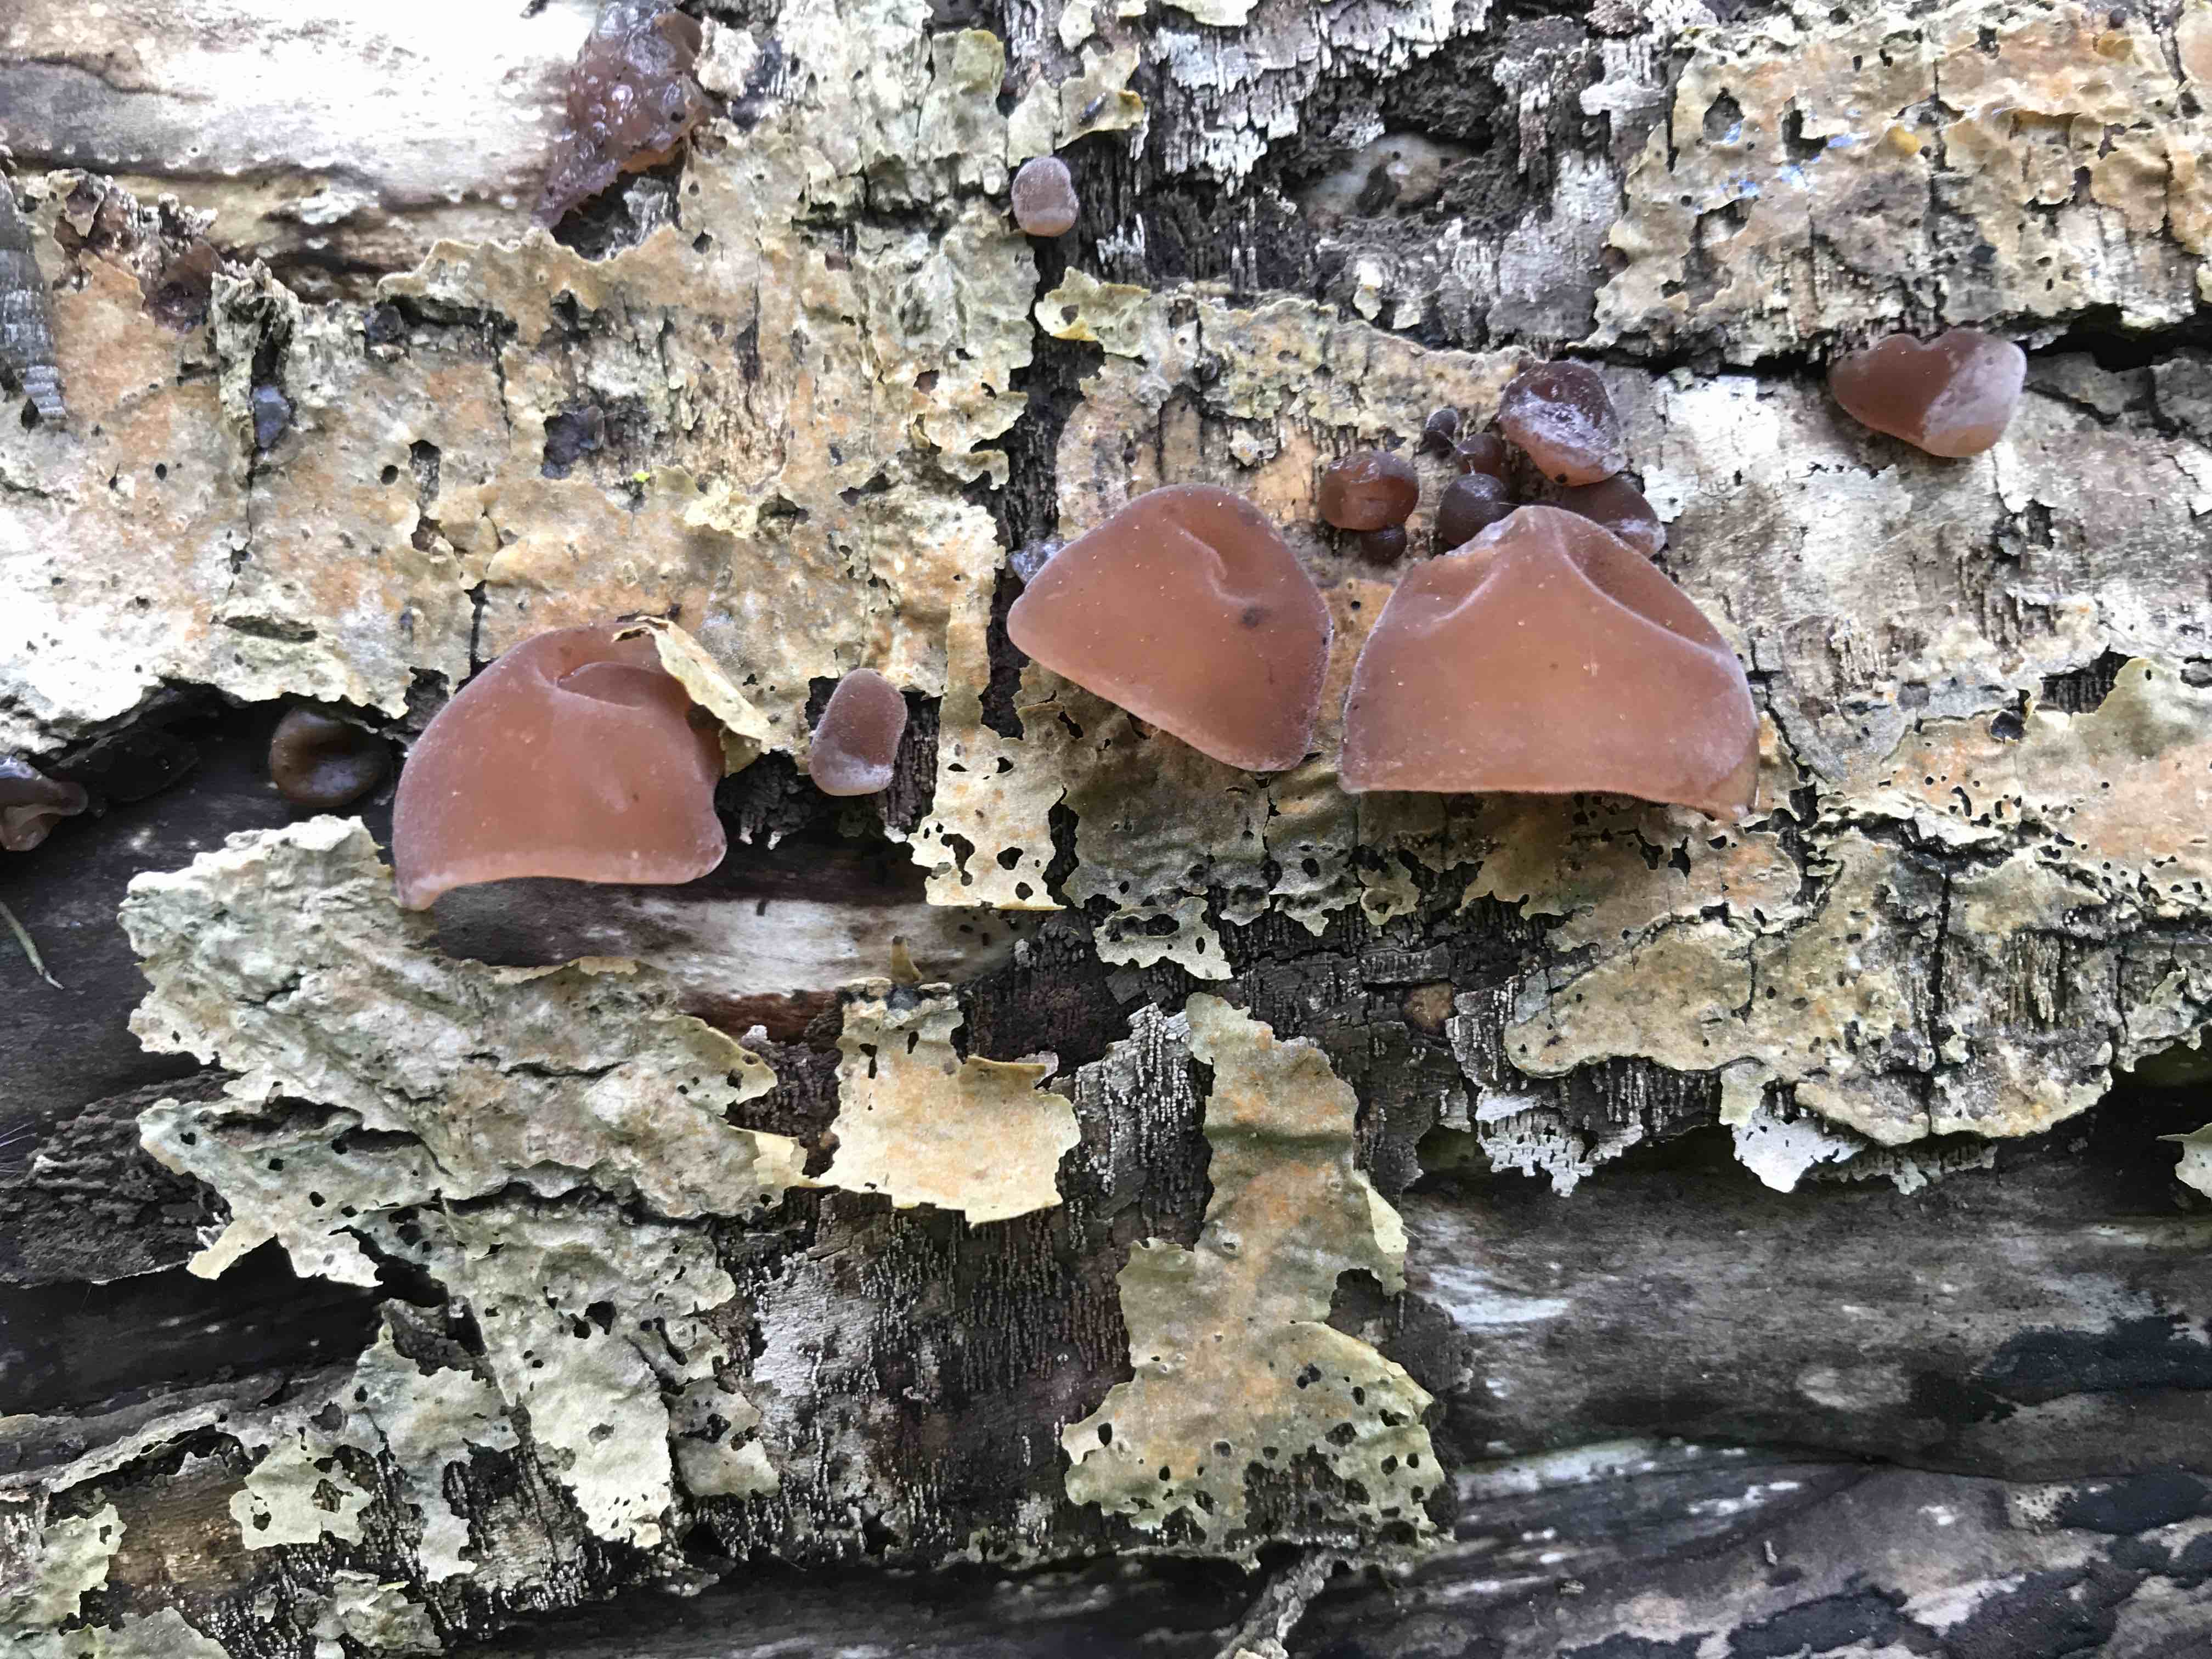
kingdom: Fungi
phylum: Basidiomycota
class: Agaricomycetes
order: Auriculariales
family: Auriculariaceae
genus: Auricularia
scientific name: Auricularia auricula-judae
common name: almindelig judasøre
